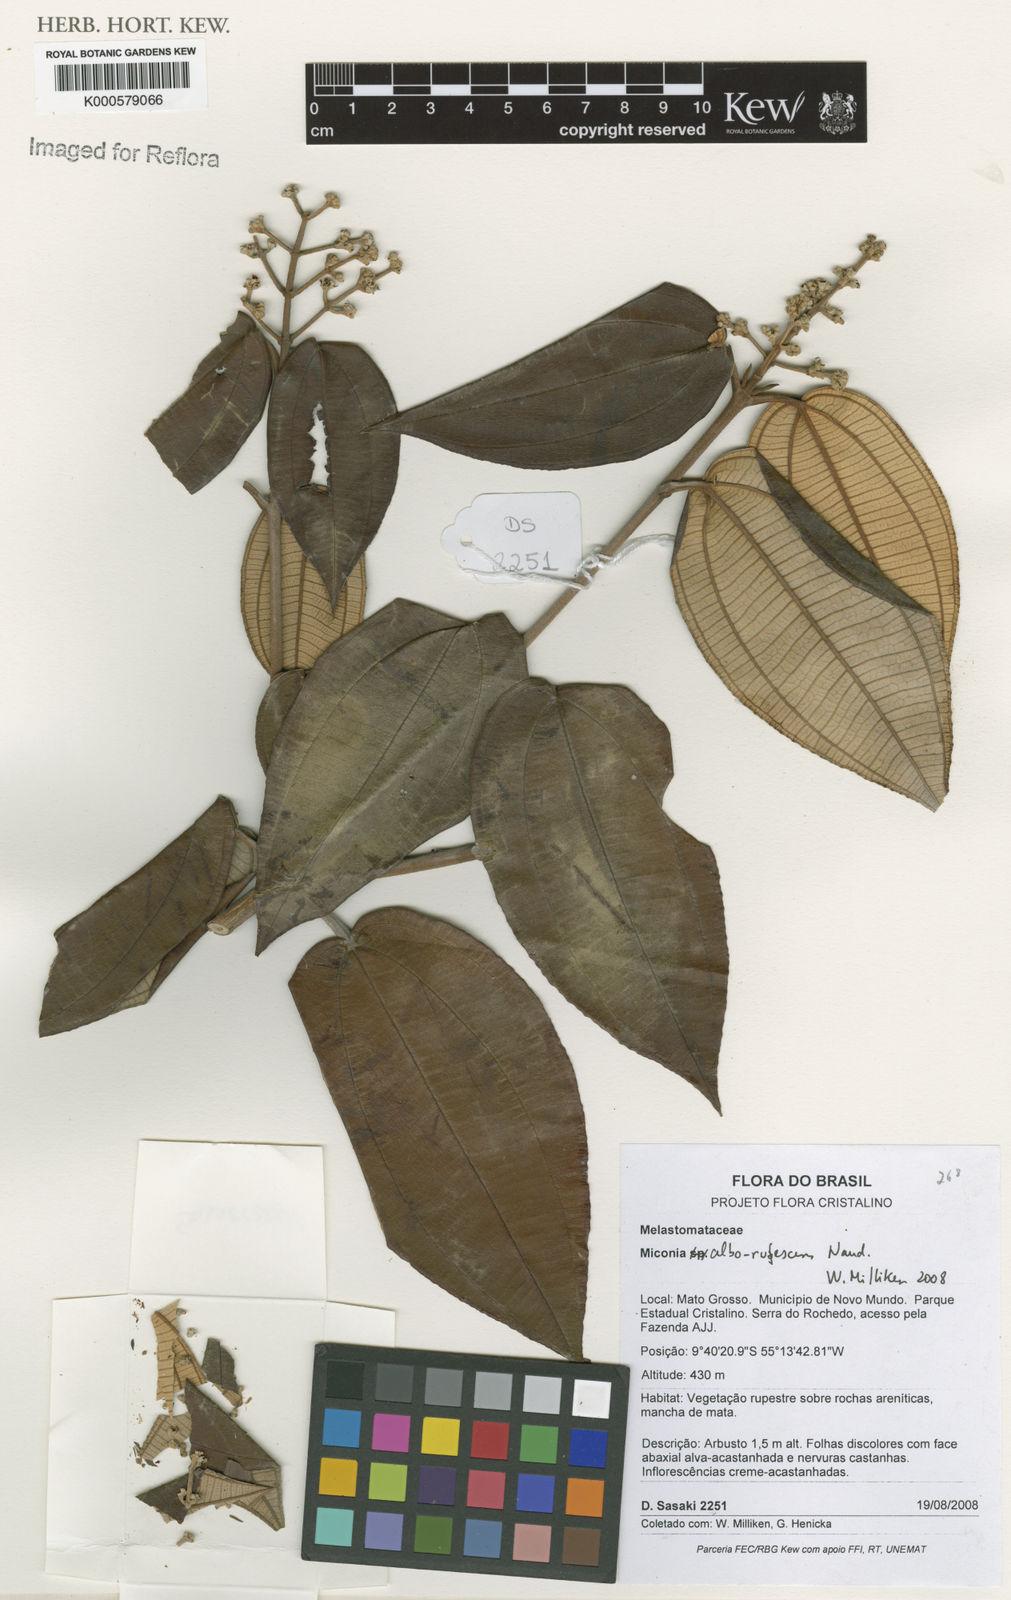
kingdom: Plantae
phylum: Tracheophyta
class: Magnoliopsida
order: Myrtales
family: Melastomataceae
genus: Miconia
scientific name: Miconia alborufescens
